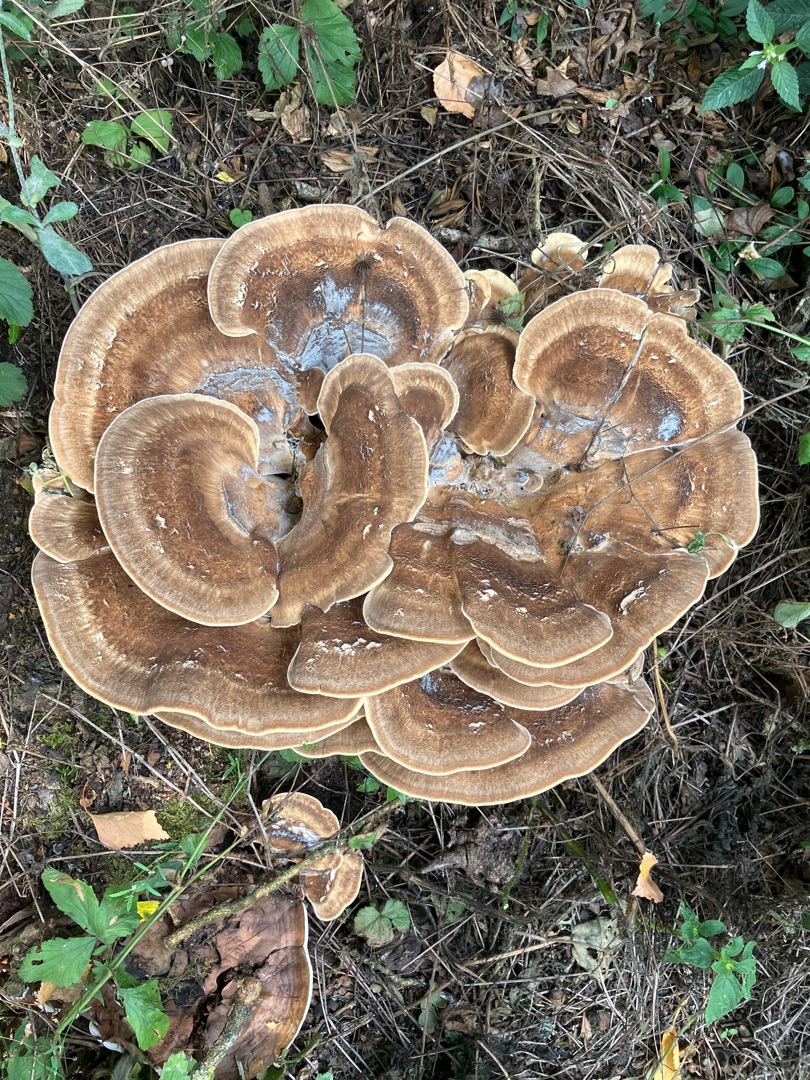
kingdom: Fungi
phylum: Basidiomycota
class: Agaricomycetes
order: Polyporales
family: Meripilaceae
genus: Meripilus
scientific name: Meripilus giganteus
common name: Kæmpeporesvamp
